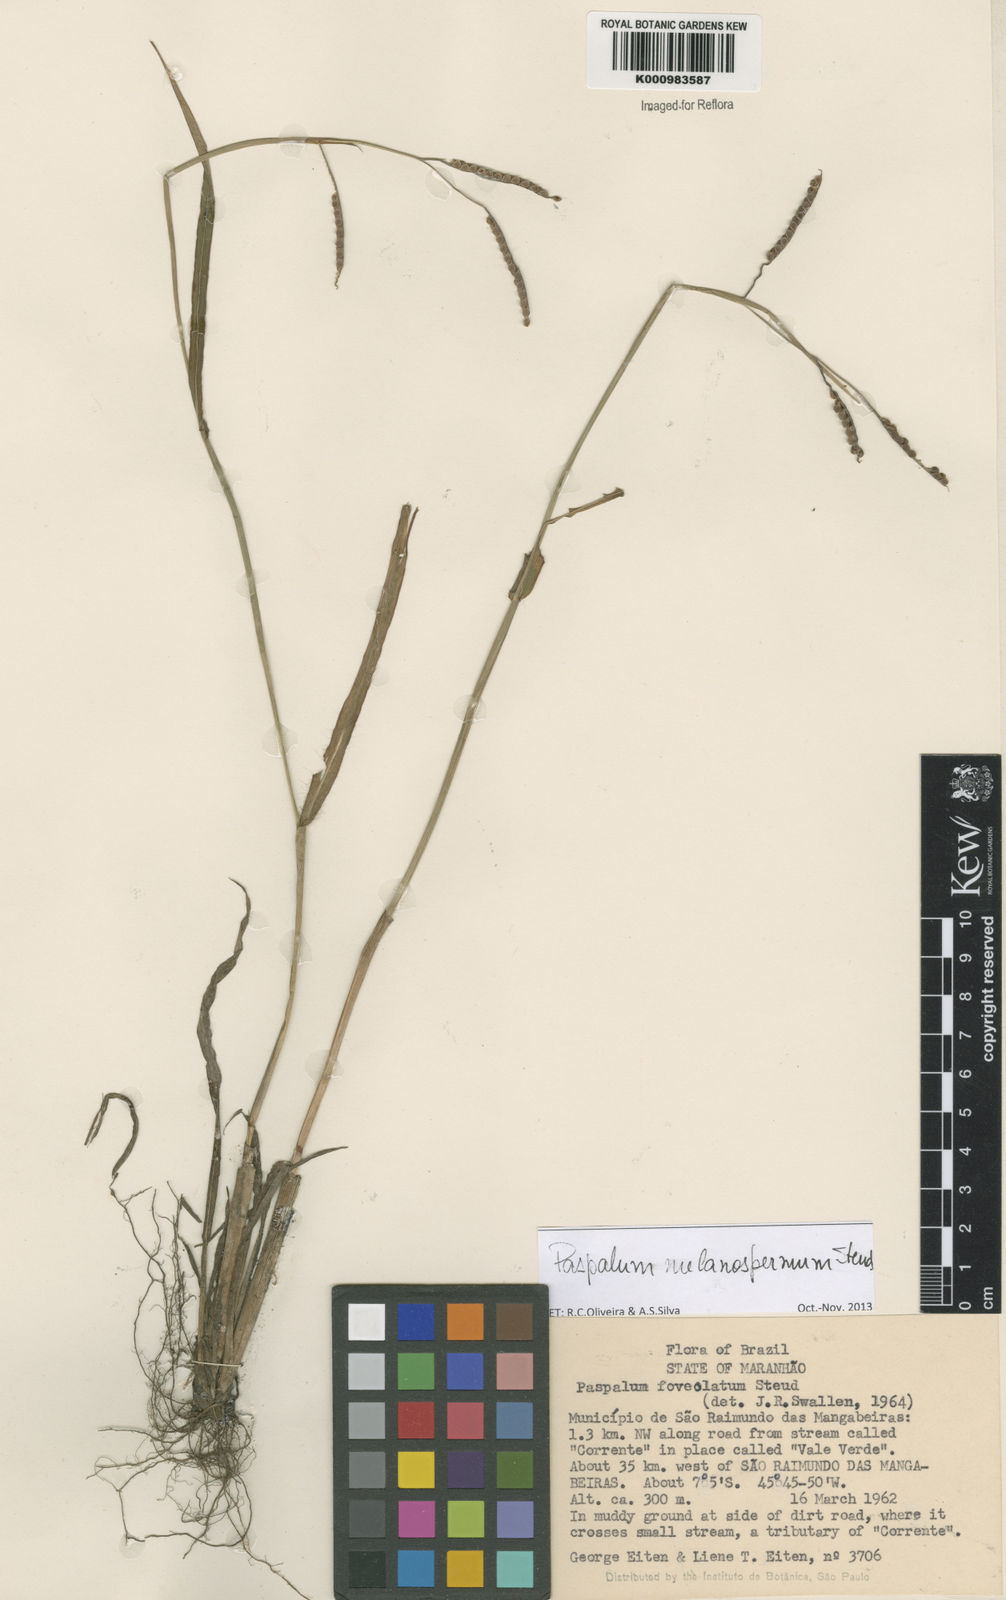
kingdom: Plantae
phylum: Tracheophyta
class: Liliopsida
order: Poales
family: Poaceae
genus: Paspalum
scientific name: Paspalum melanospermum
